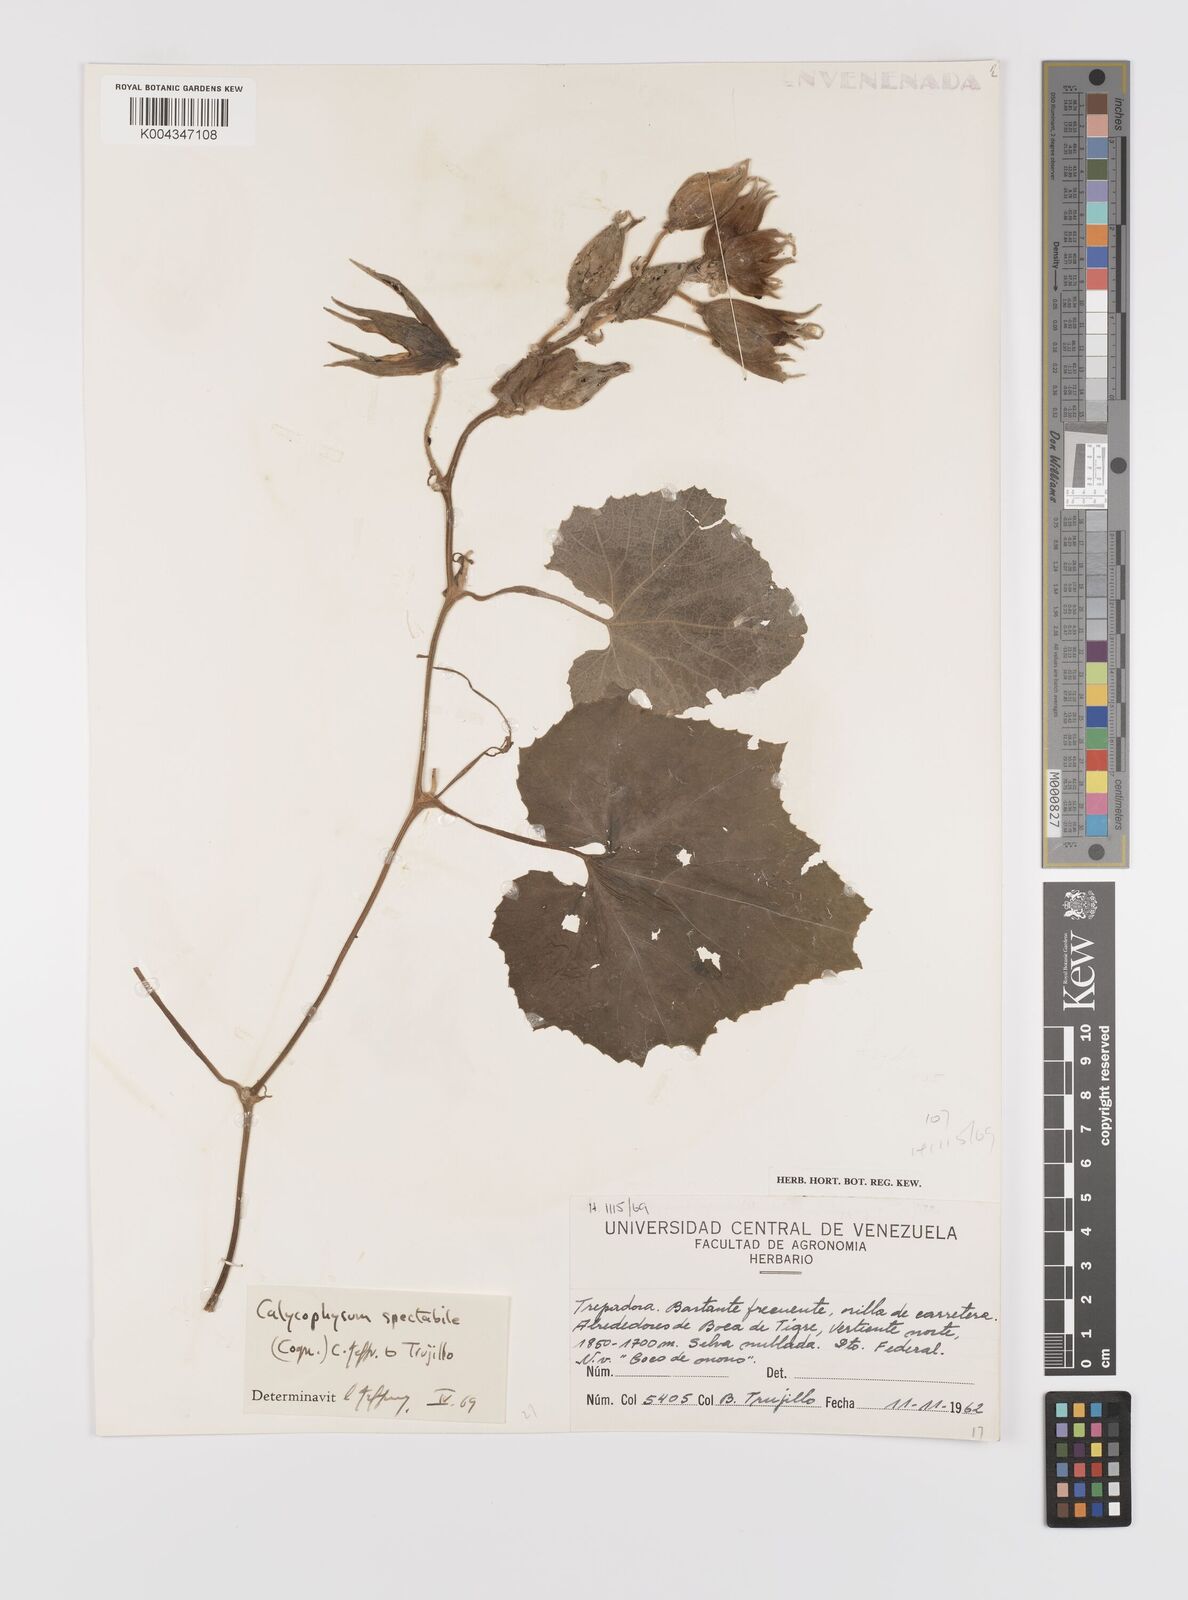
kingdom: Plantae
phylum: Tracheophyta
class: Magnoliopsida
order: Cucurbitales
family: Cucurbitaceae
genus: Calycophysum
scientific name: Calycophysum spectabile
